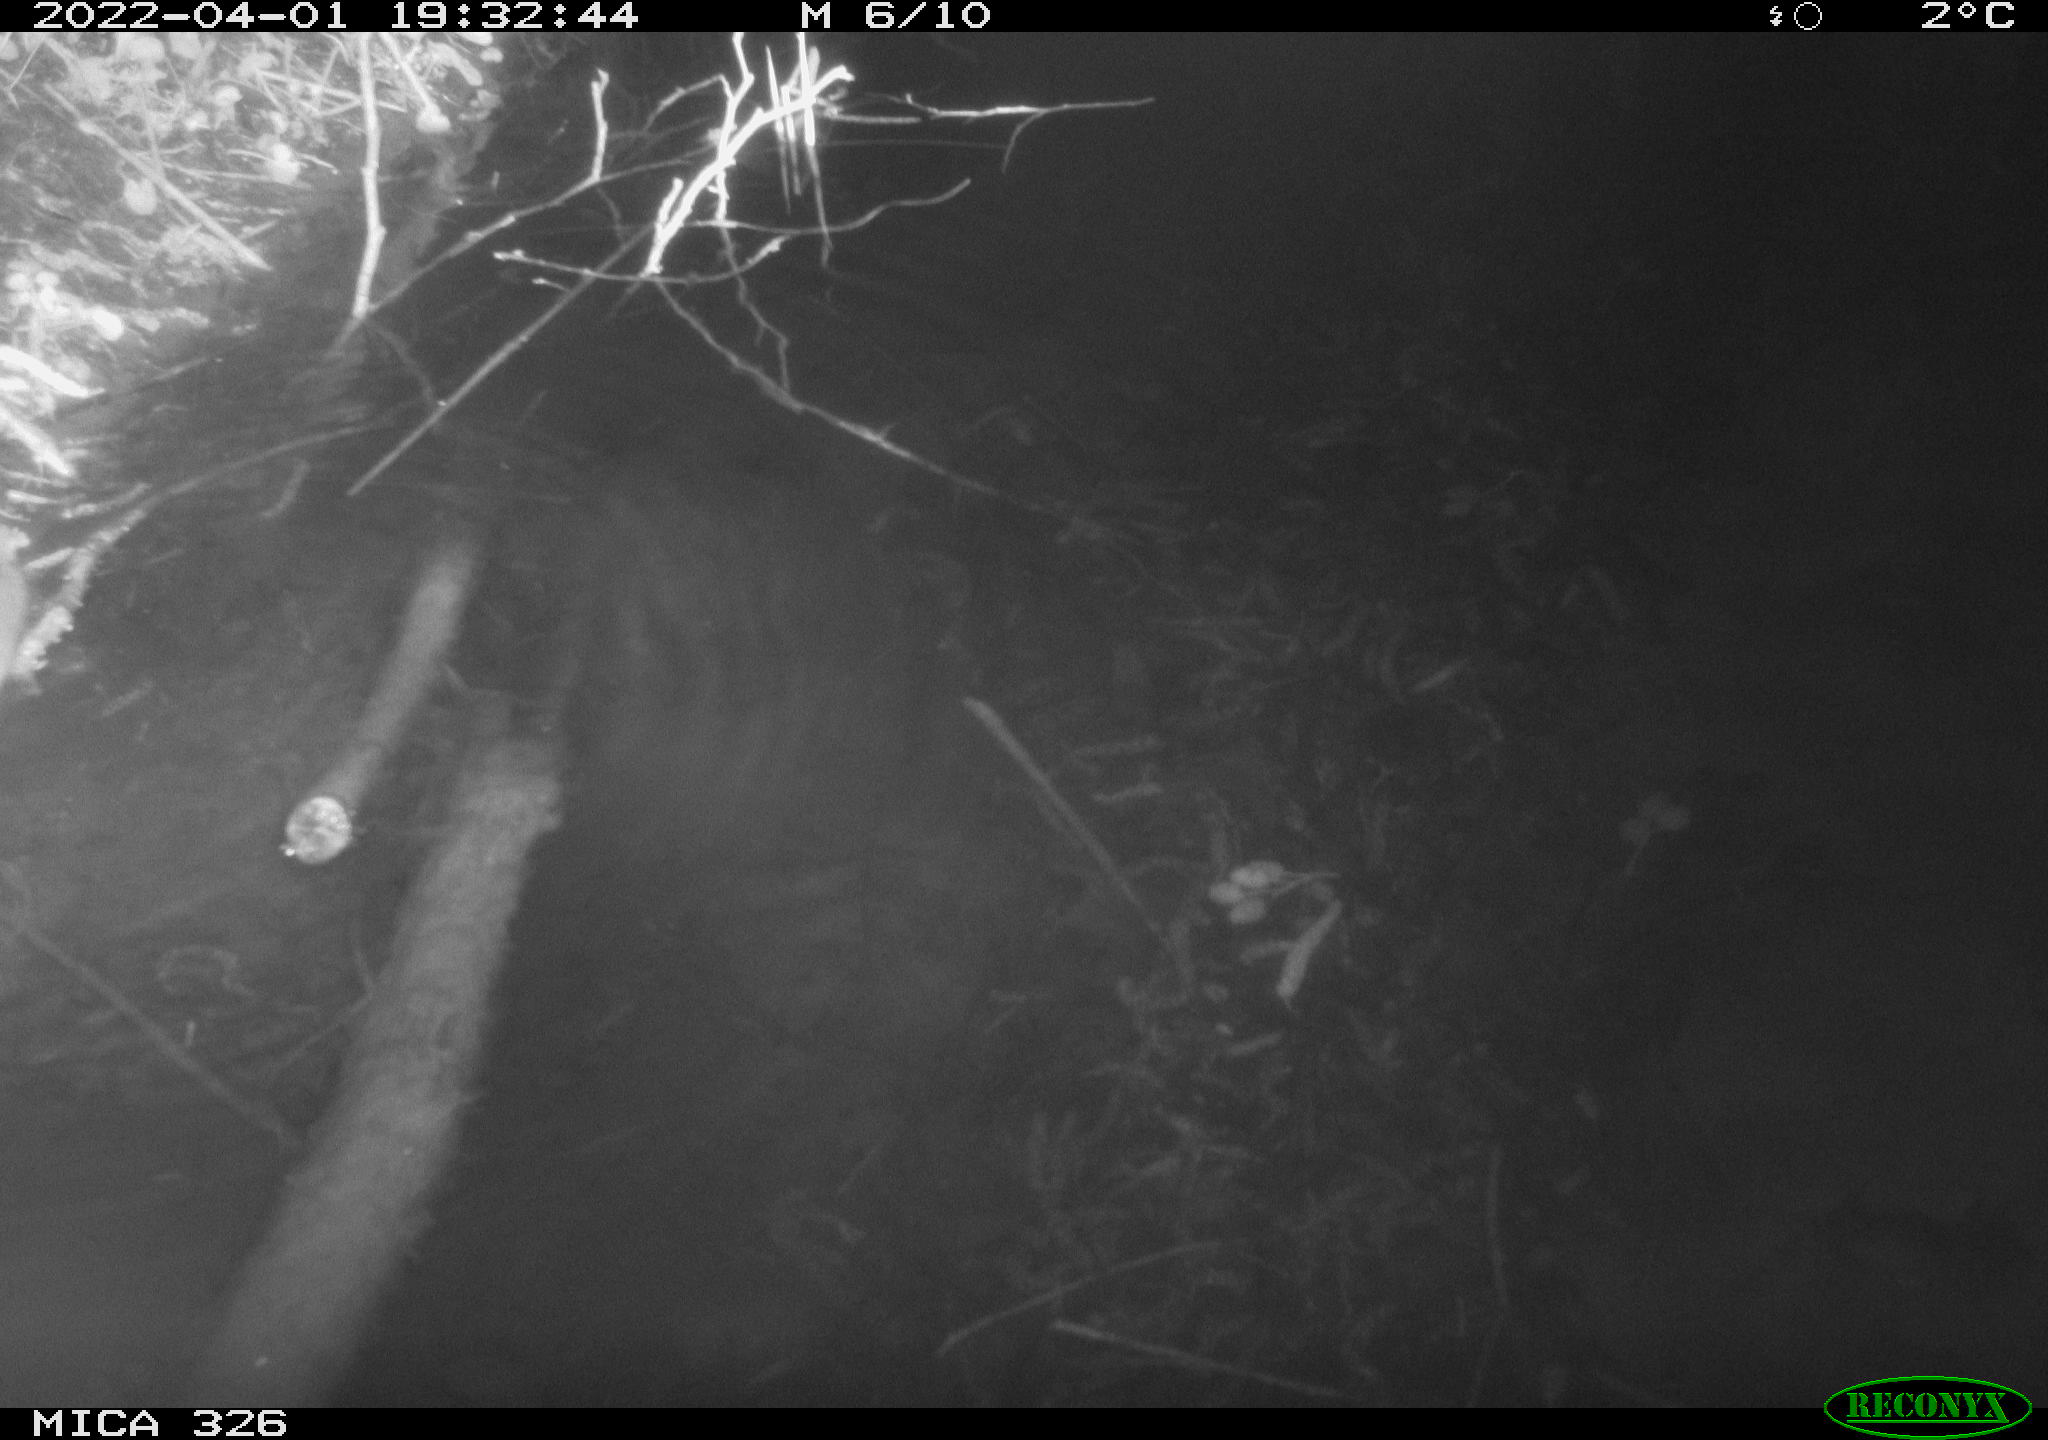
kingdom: Animalia
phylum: Chordata
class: Mammalia
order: Rodentia
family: Muridae
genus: Rattus
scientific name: Rattus norvegicus
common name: Brown rat
